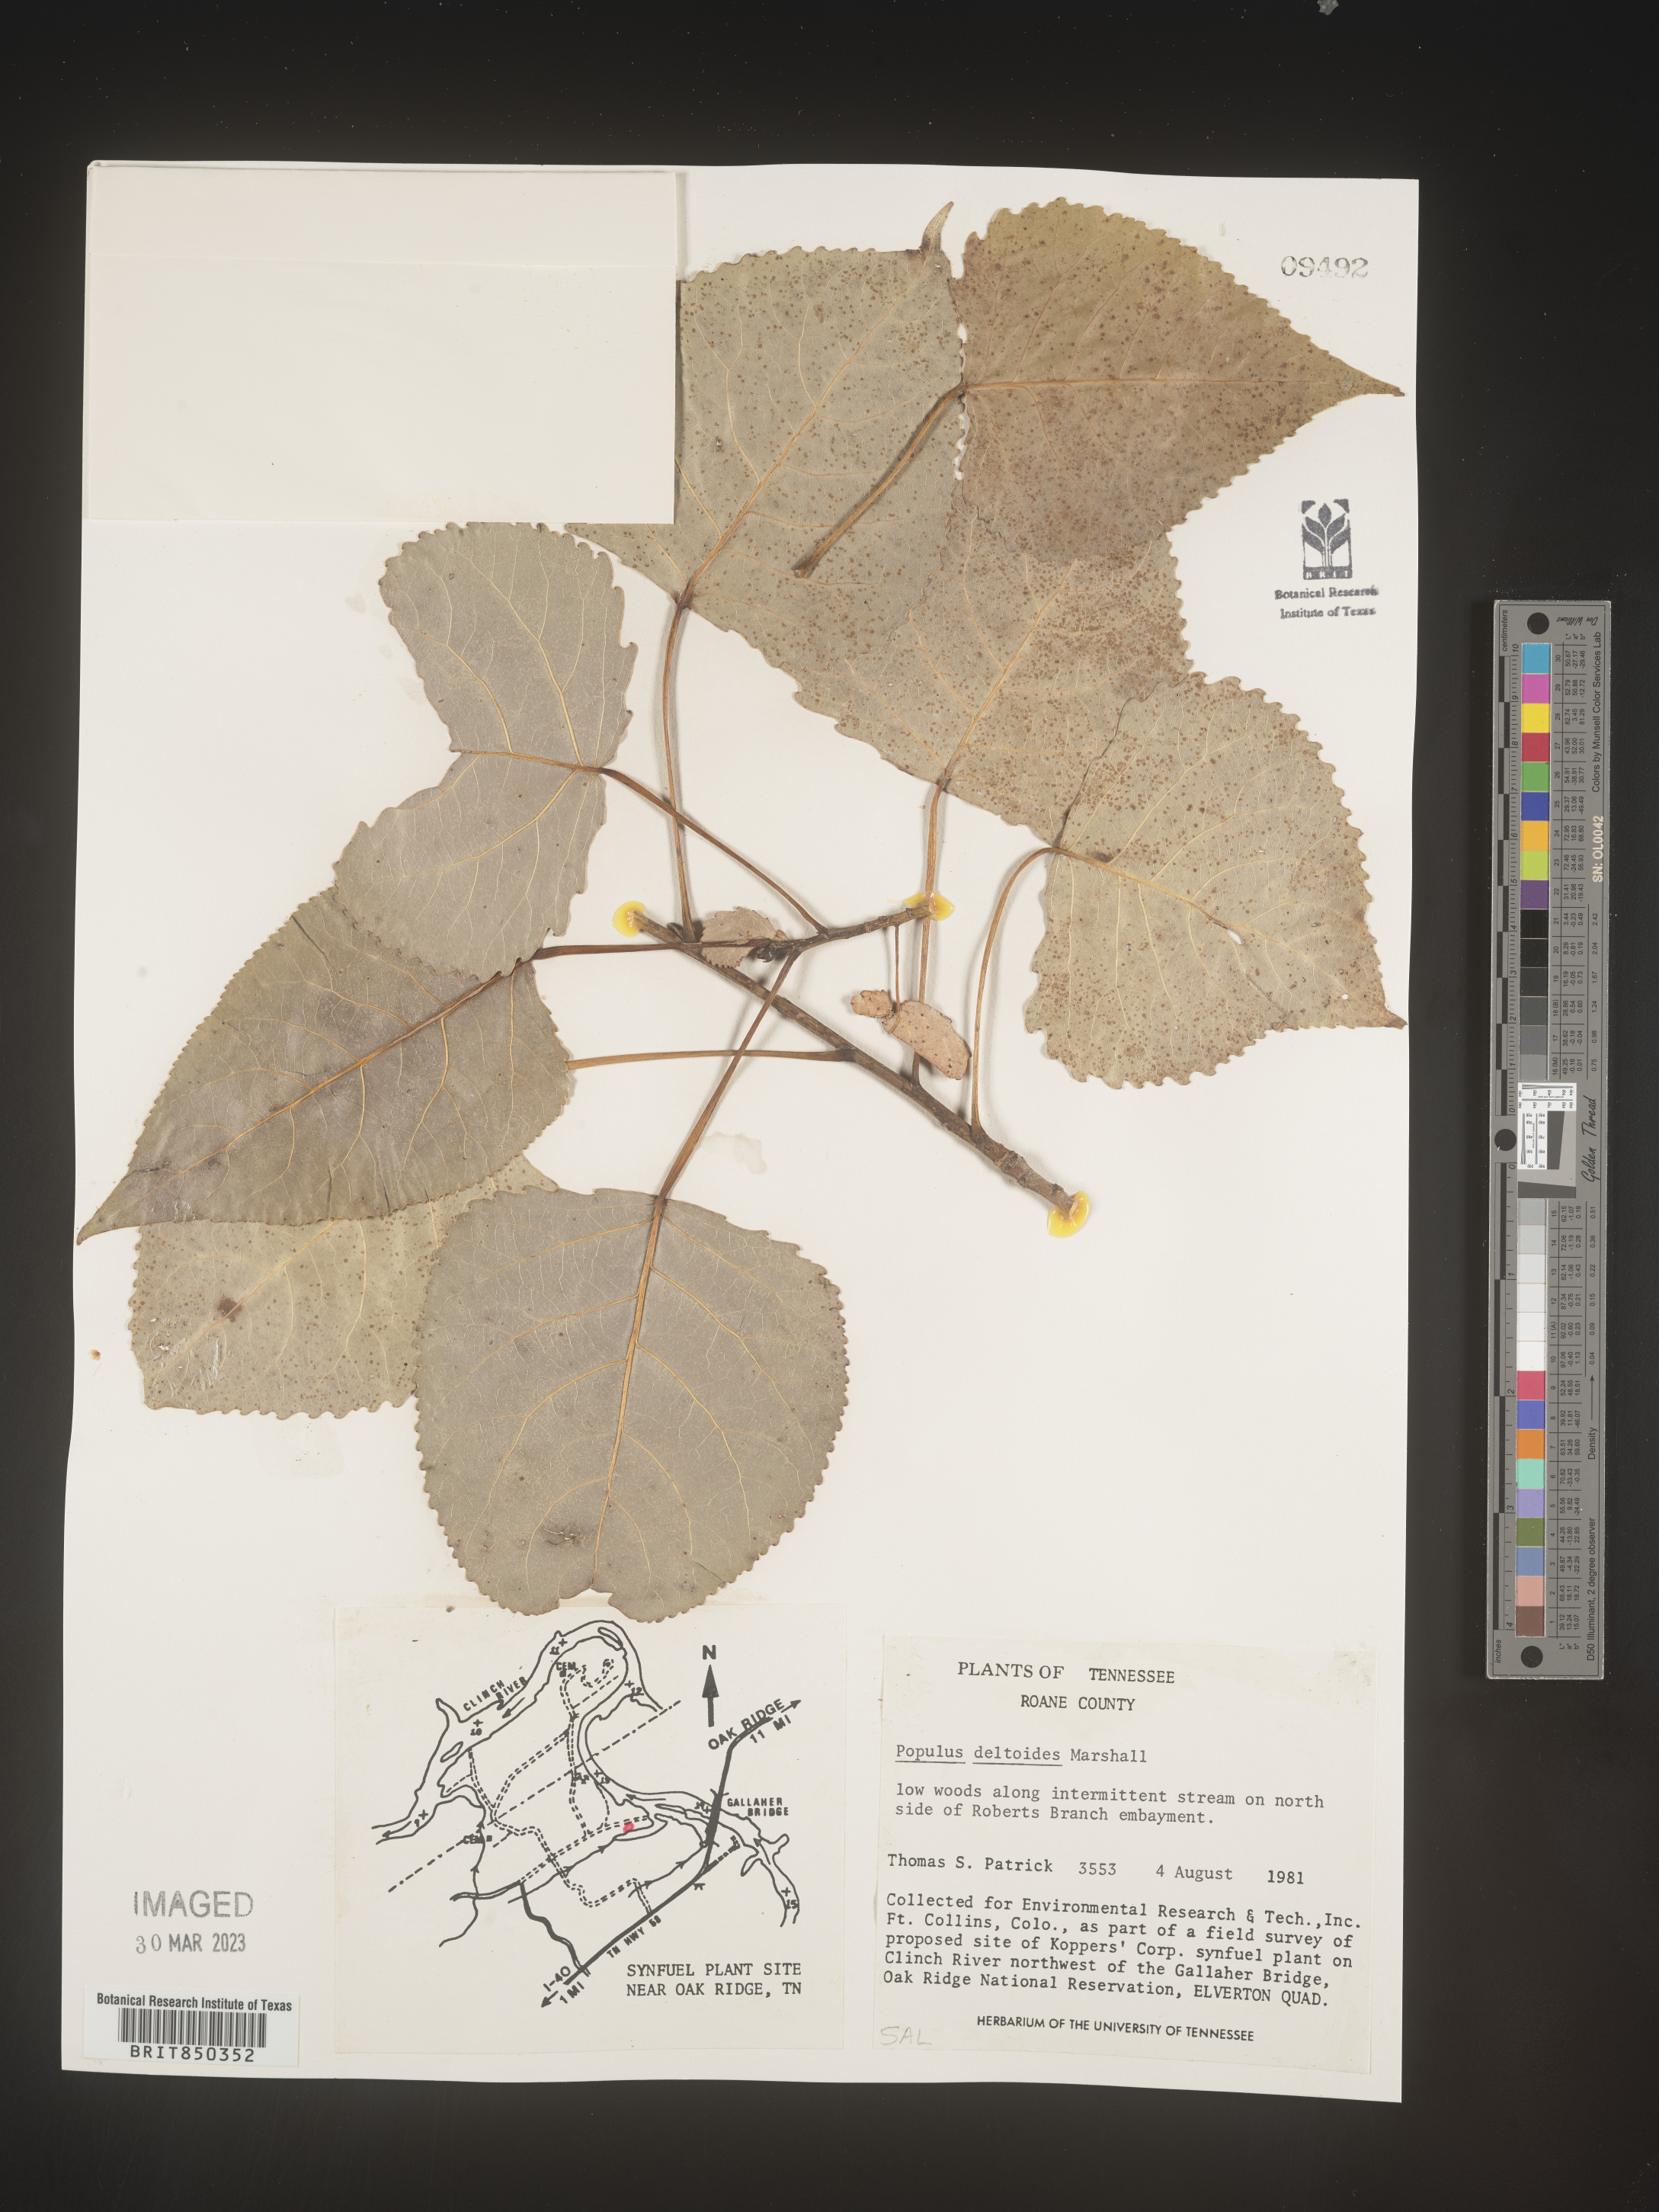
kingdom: Plantae
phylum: Tracheophyta
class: Magnoliopsida
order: Malpighiales
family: Salicaceae
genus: Populus
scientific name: Populus deltoides
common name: Eastern cottonwood
